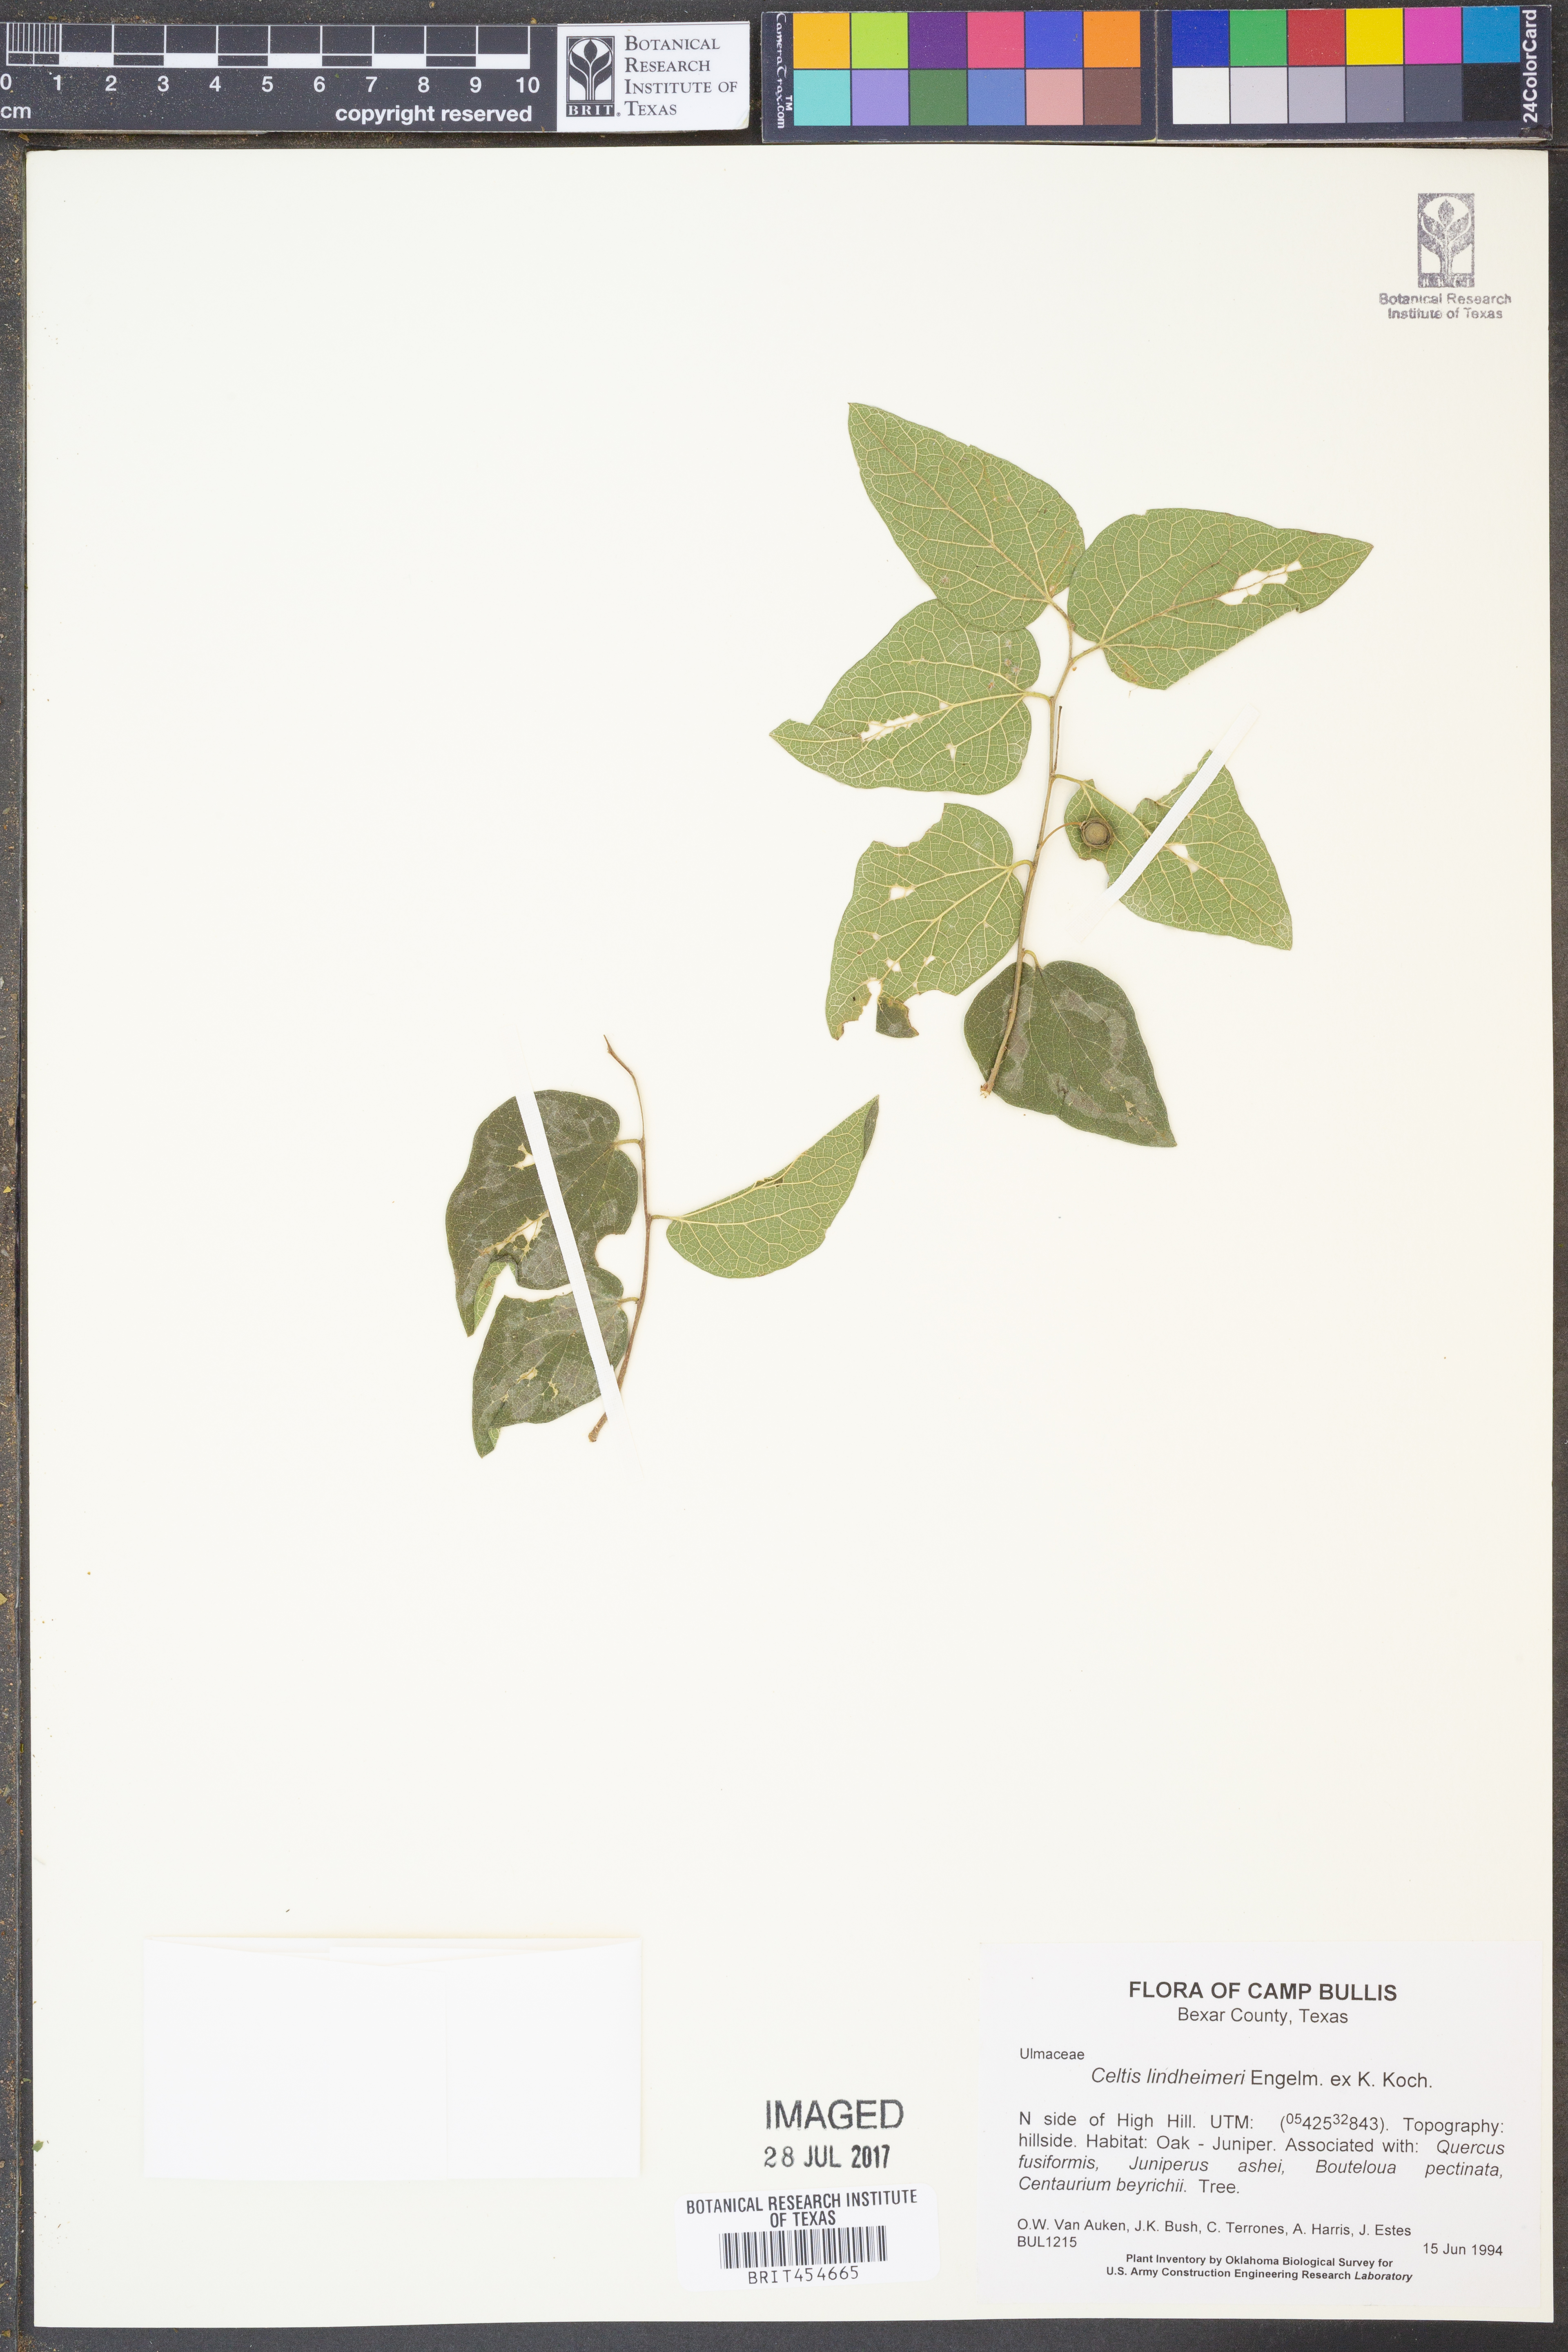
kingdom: Plantae
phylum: Tracheophyta
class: Magnoliopsida
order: Rosales
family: Cannabaceae
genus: Celtis
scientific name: Celtis lindheimeri
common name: Lindheimer hackberry
